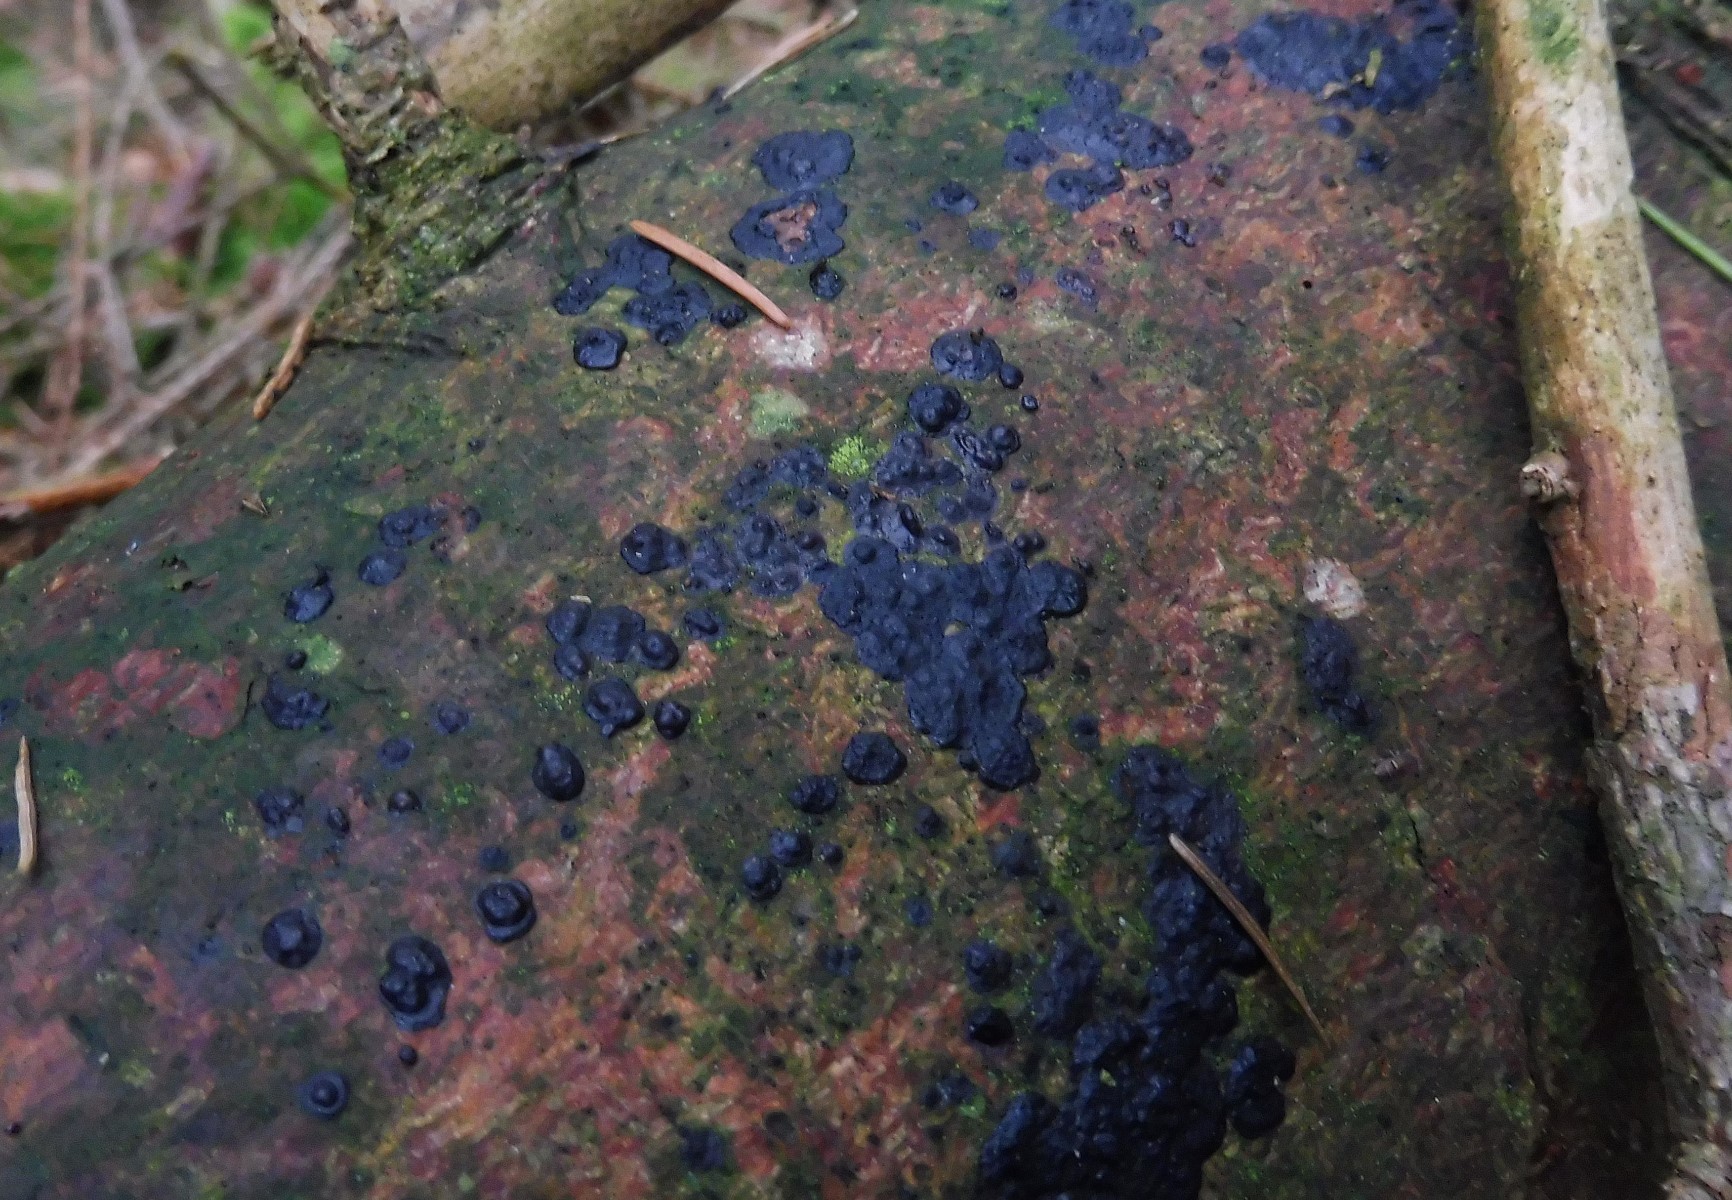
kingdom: Fungi
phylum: Basidiomycota
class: Agaricomycetes
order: Auriculariales
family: Auriculariaceae
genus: Exidia
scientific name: Exidia pithya
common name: gran-bævretop
